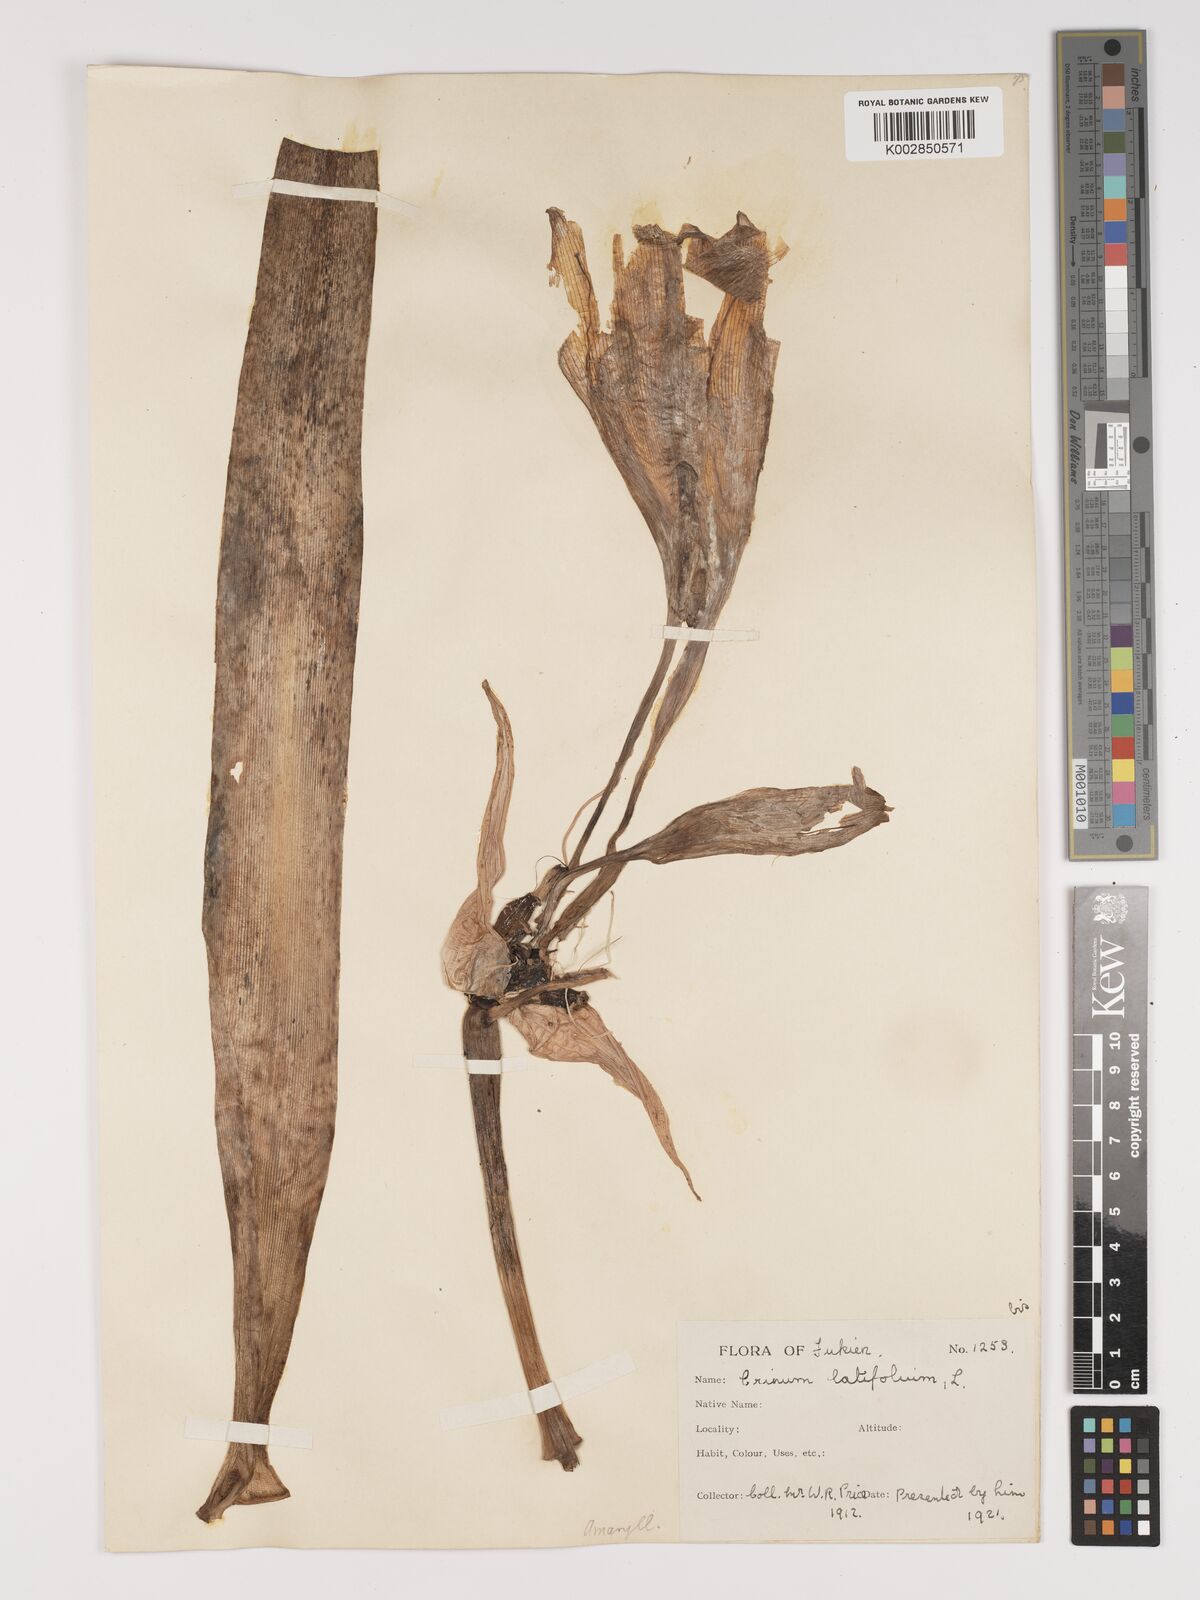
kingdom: Plantae
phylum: Tracheophyta
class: Liliopsida
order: Asparagales
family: Amaryllidaceae
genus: Crinum
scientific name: Crinum latifolium
